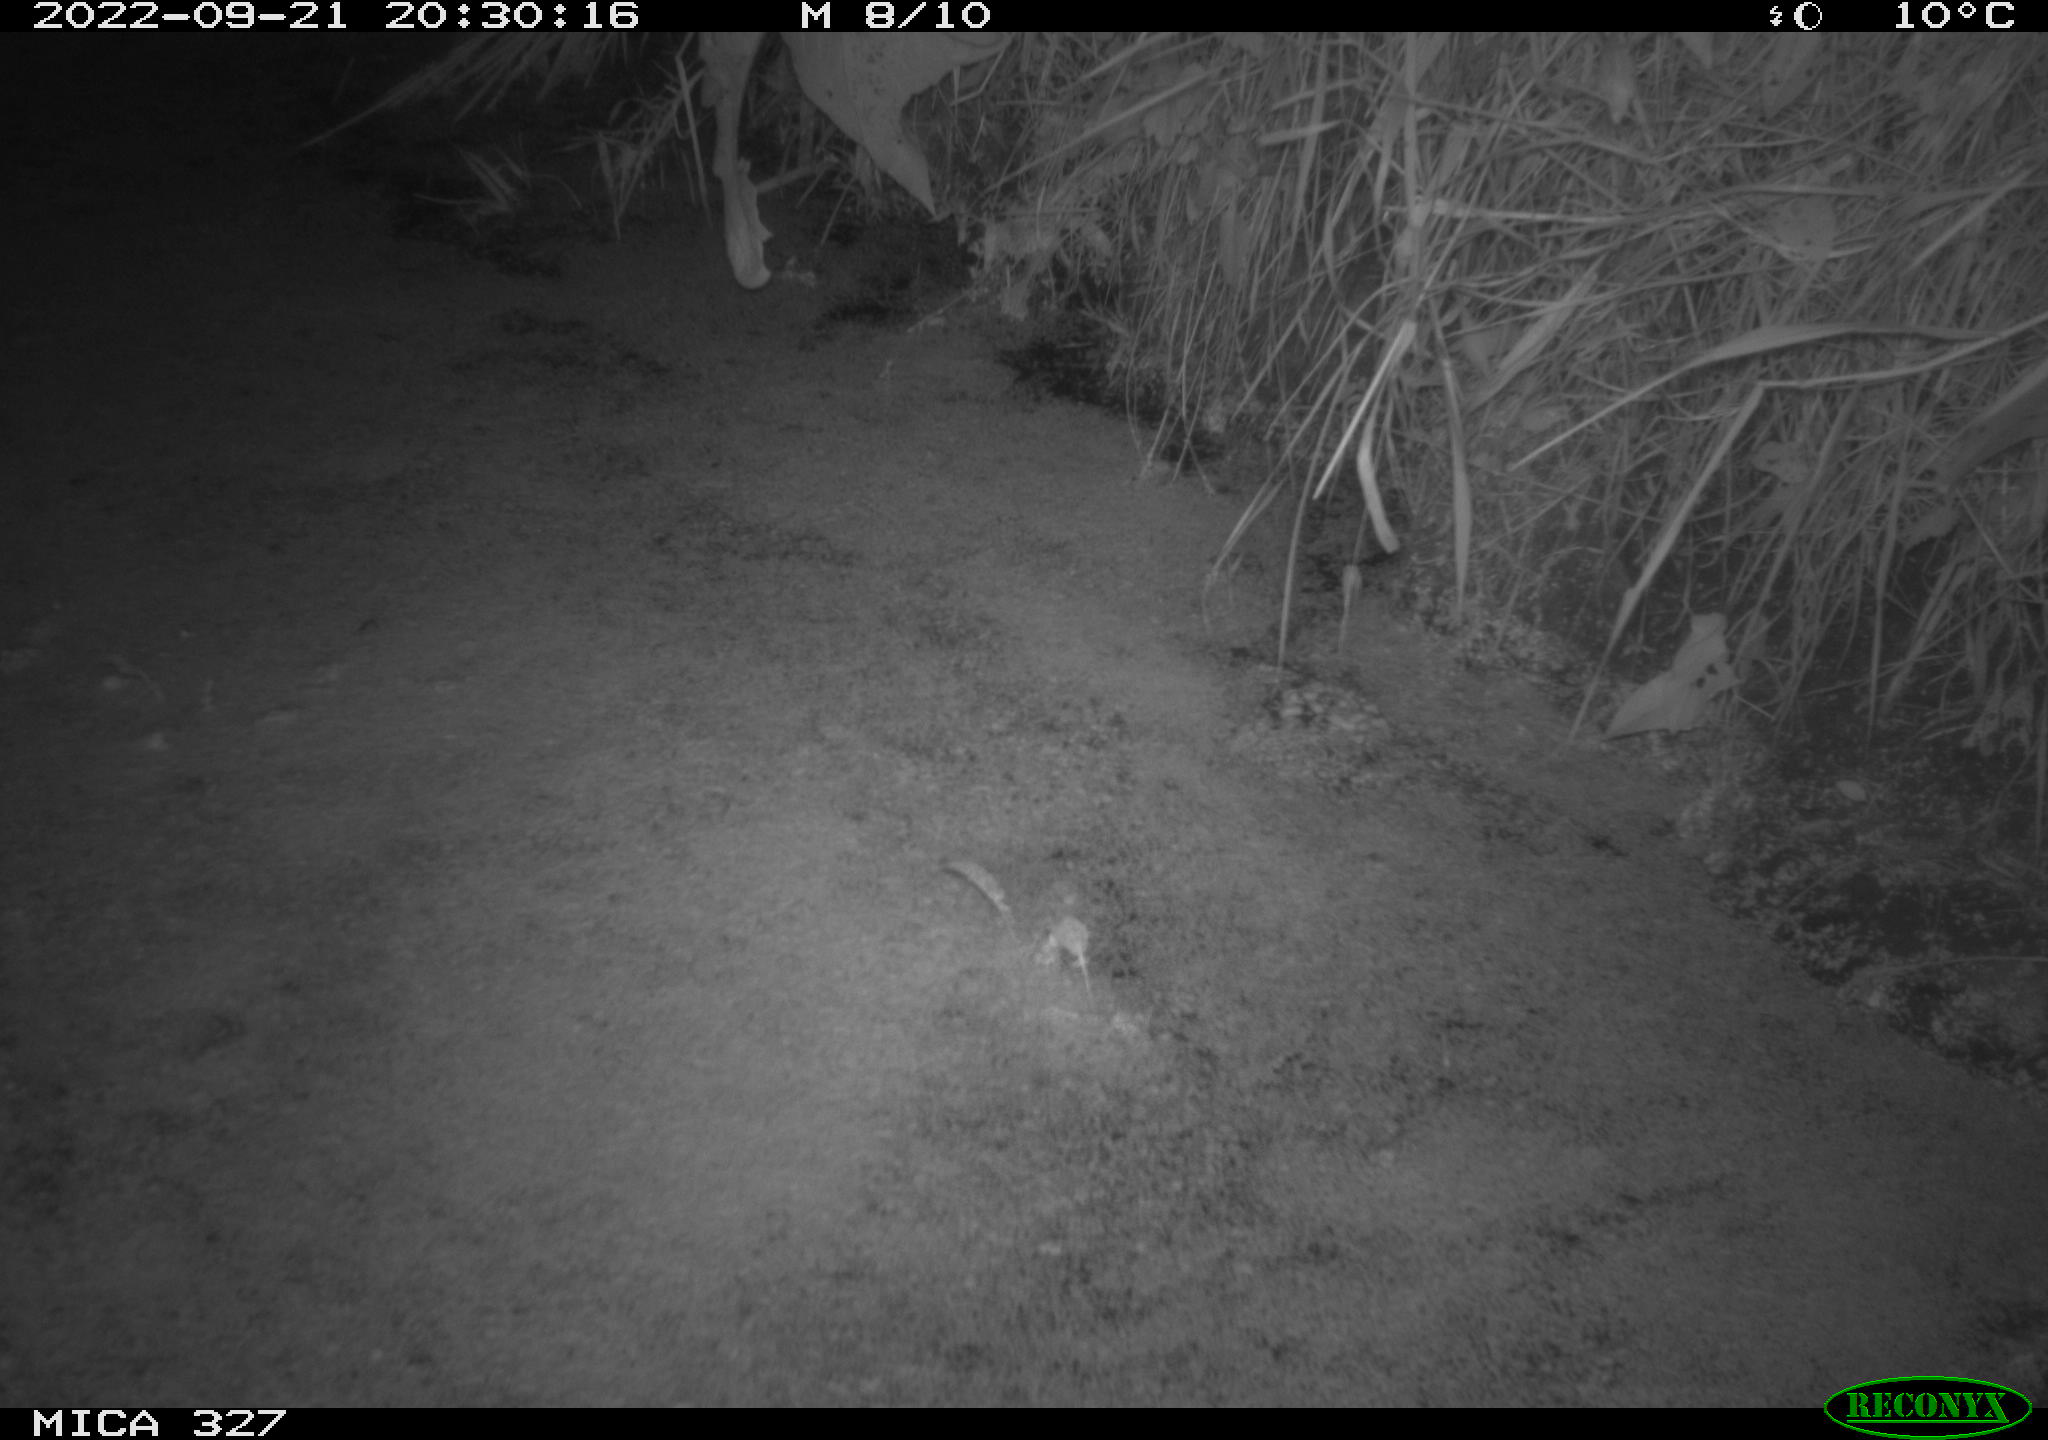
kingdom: Animalia
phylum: Chordata
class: Mammalia
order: Rodentia
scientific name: Rodentia
